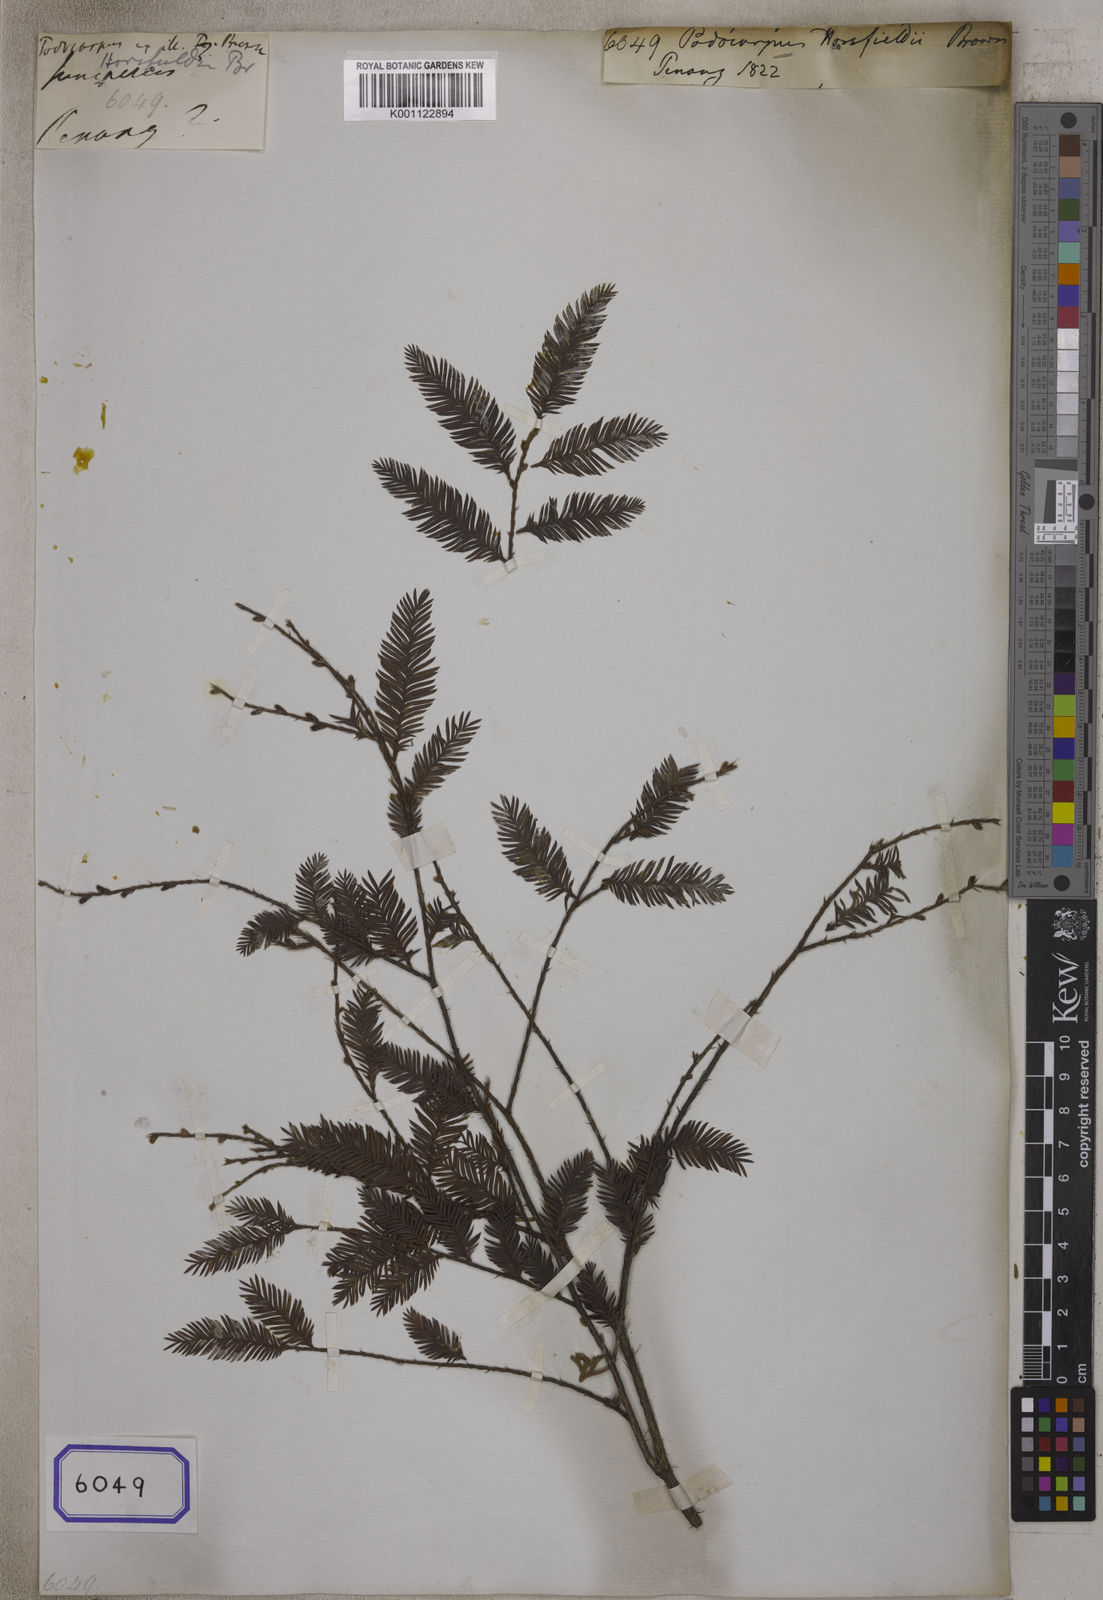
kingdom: Plantae
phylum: Tracheophyta
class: Pinopsida
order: Pinales
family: Podocarpaceae
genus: Podocarpus
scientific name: Podocarpus
